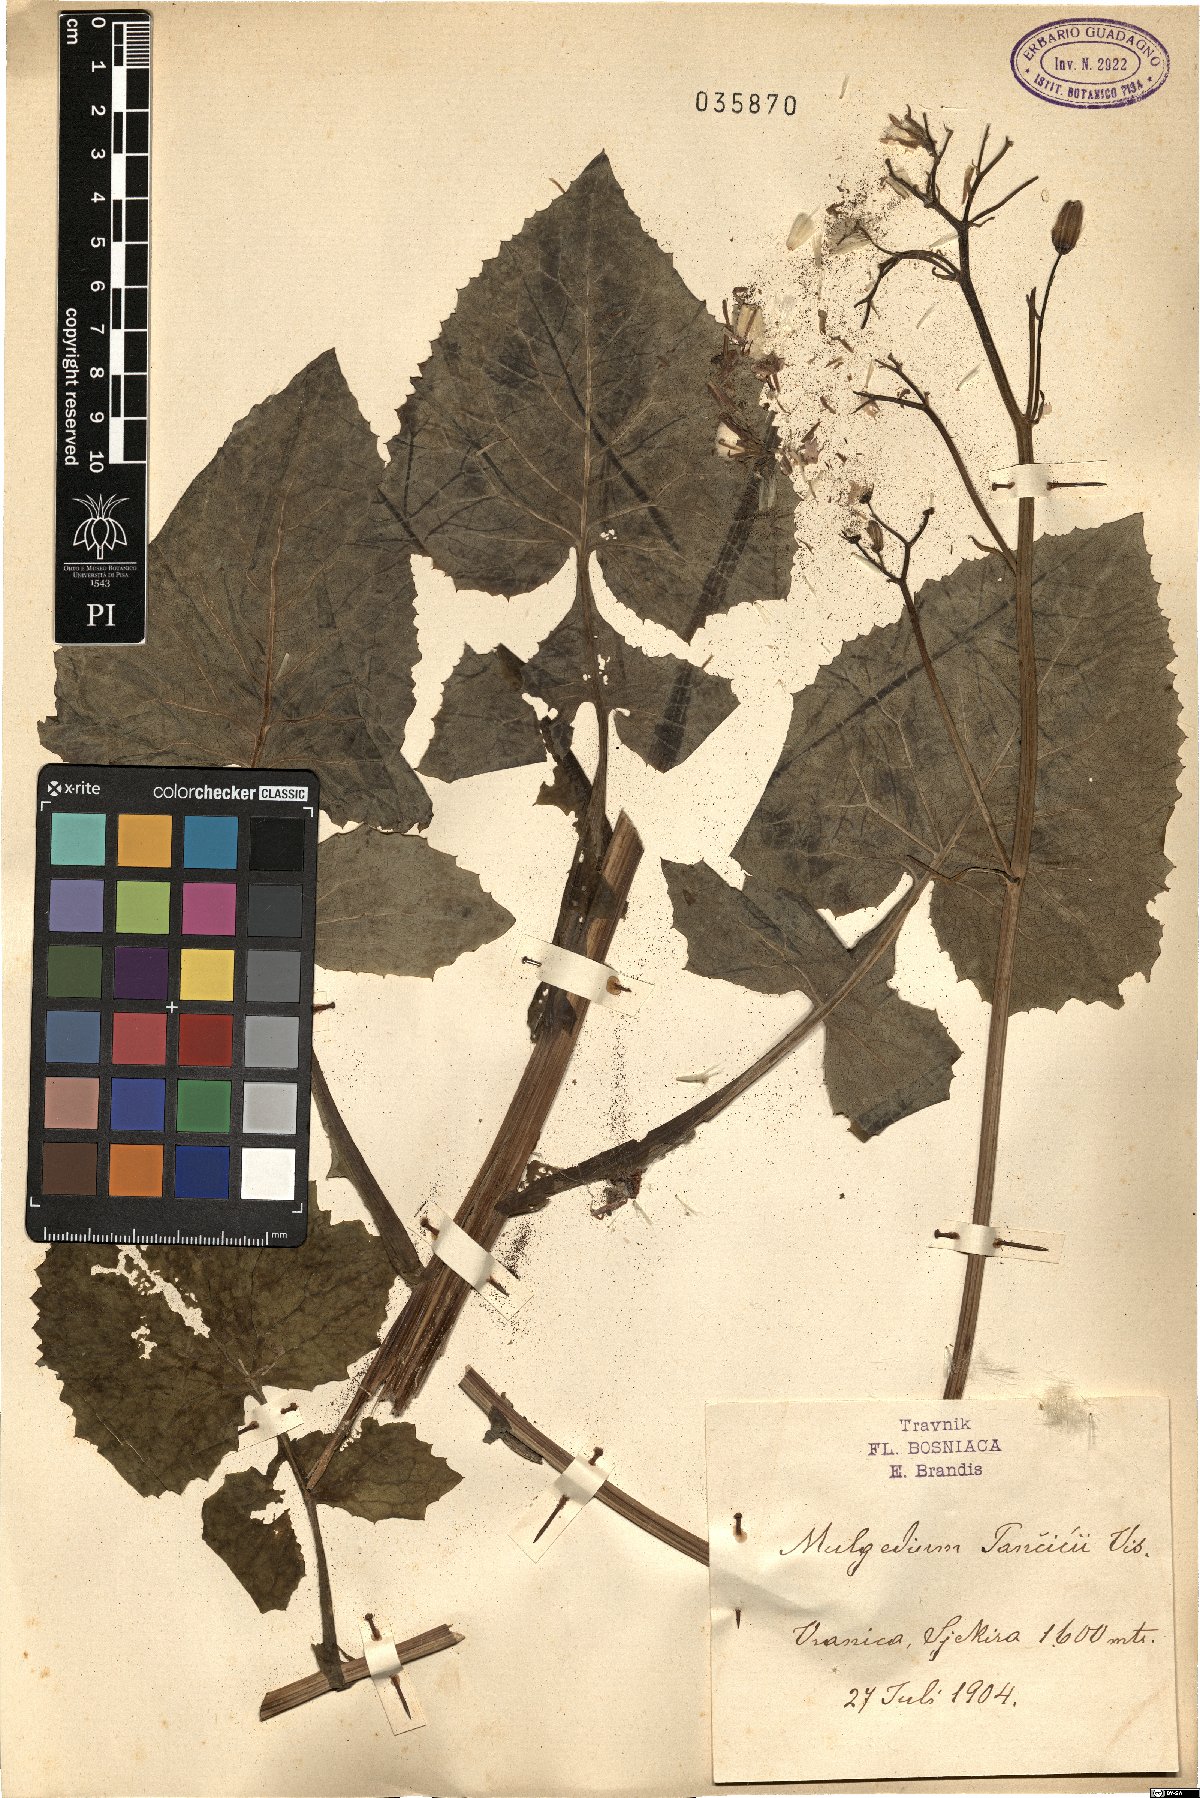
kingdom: Plantae
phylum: Tracheophyta
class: Magnoliopsida
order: Asterales
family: Asteraceae
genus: Cicerbita
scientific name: Cicerbita pancicii
